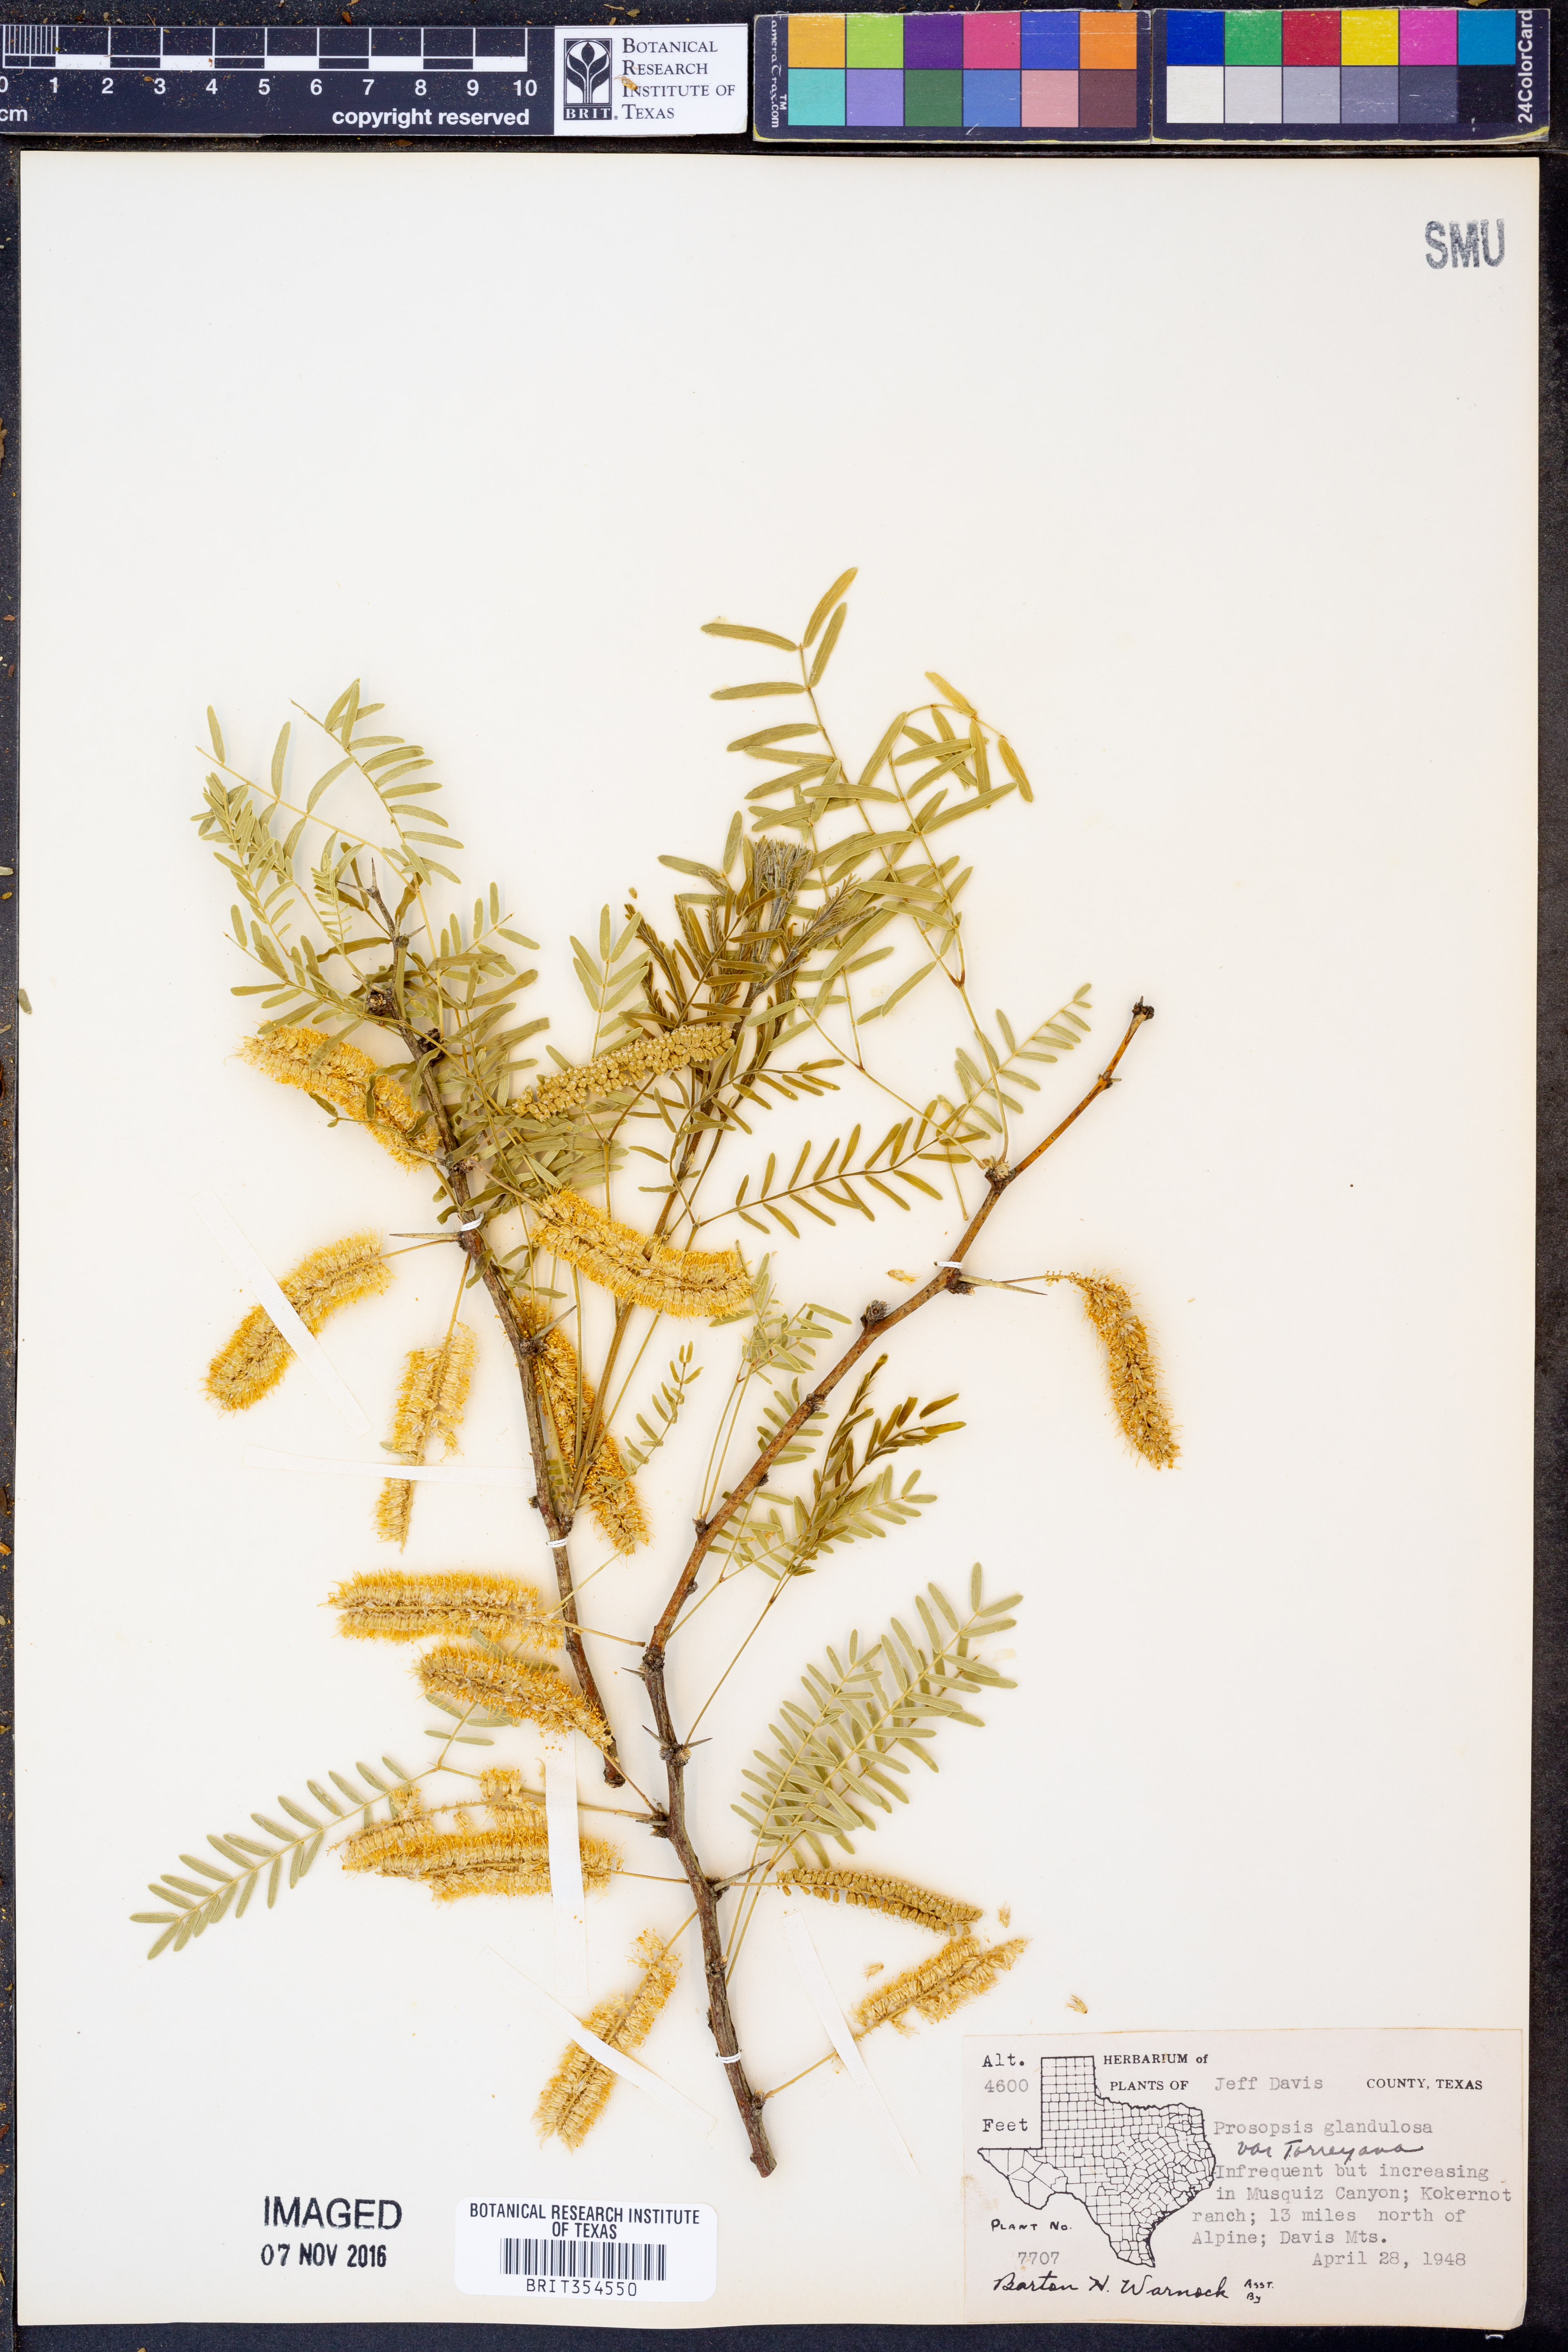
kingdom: Plantae
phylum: Tracheophyta
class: Magnoliopsida
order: Fabales
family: Fabaceae
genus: Prosopis
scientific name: Prosopis glandulosa
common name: Honey mesquite
